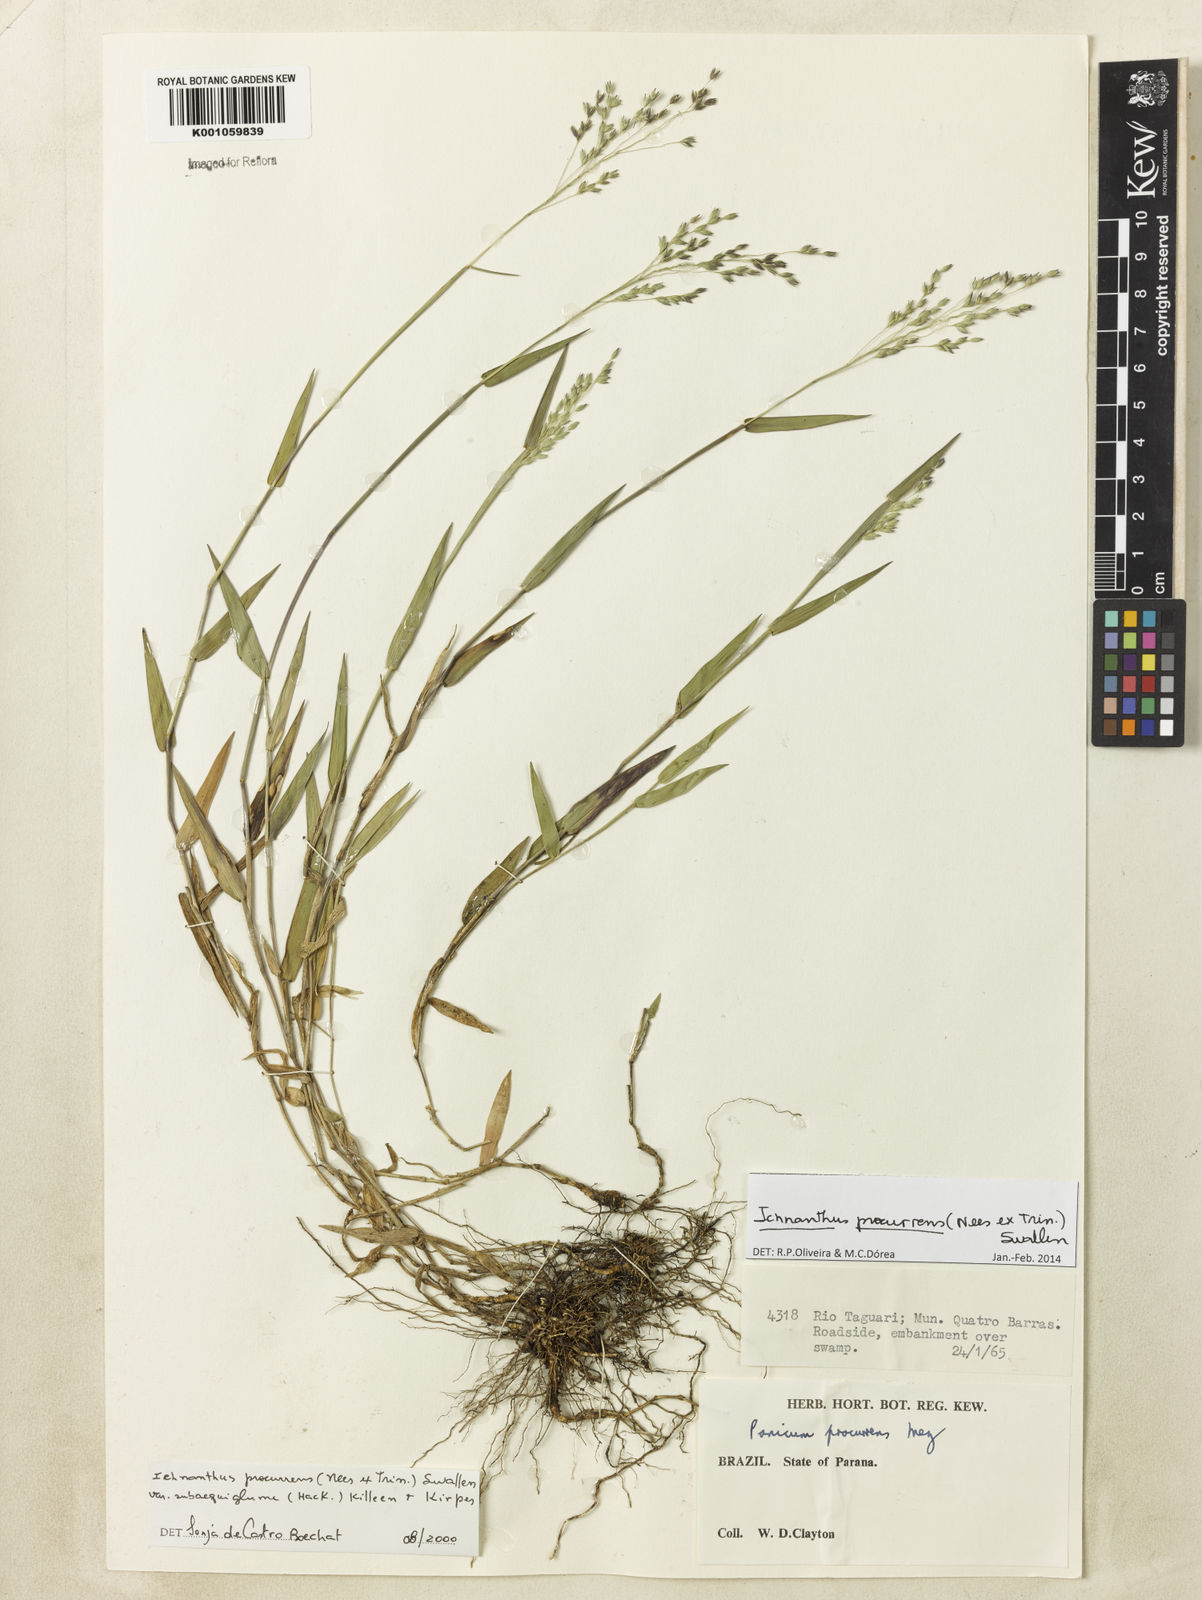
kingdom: Plantae
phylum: Tracheophyta
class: Liliopsida
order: Poales
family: Poaceae
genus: Oedochloa
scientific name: Oedochloa procurrens
